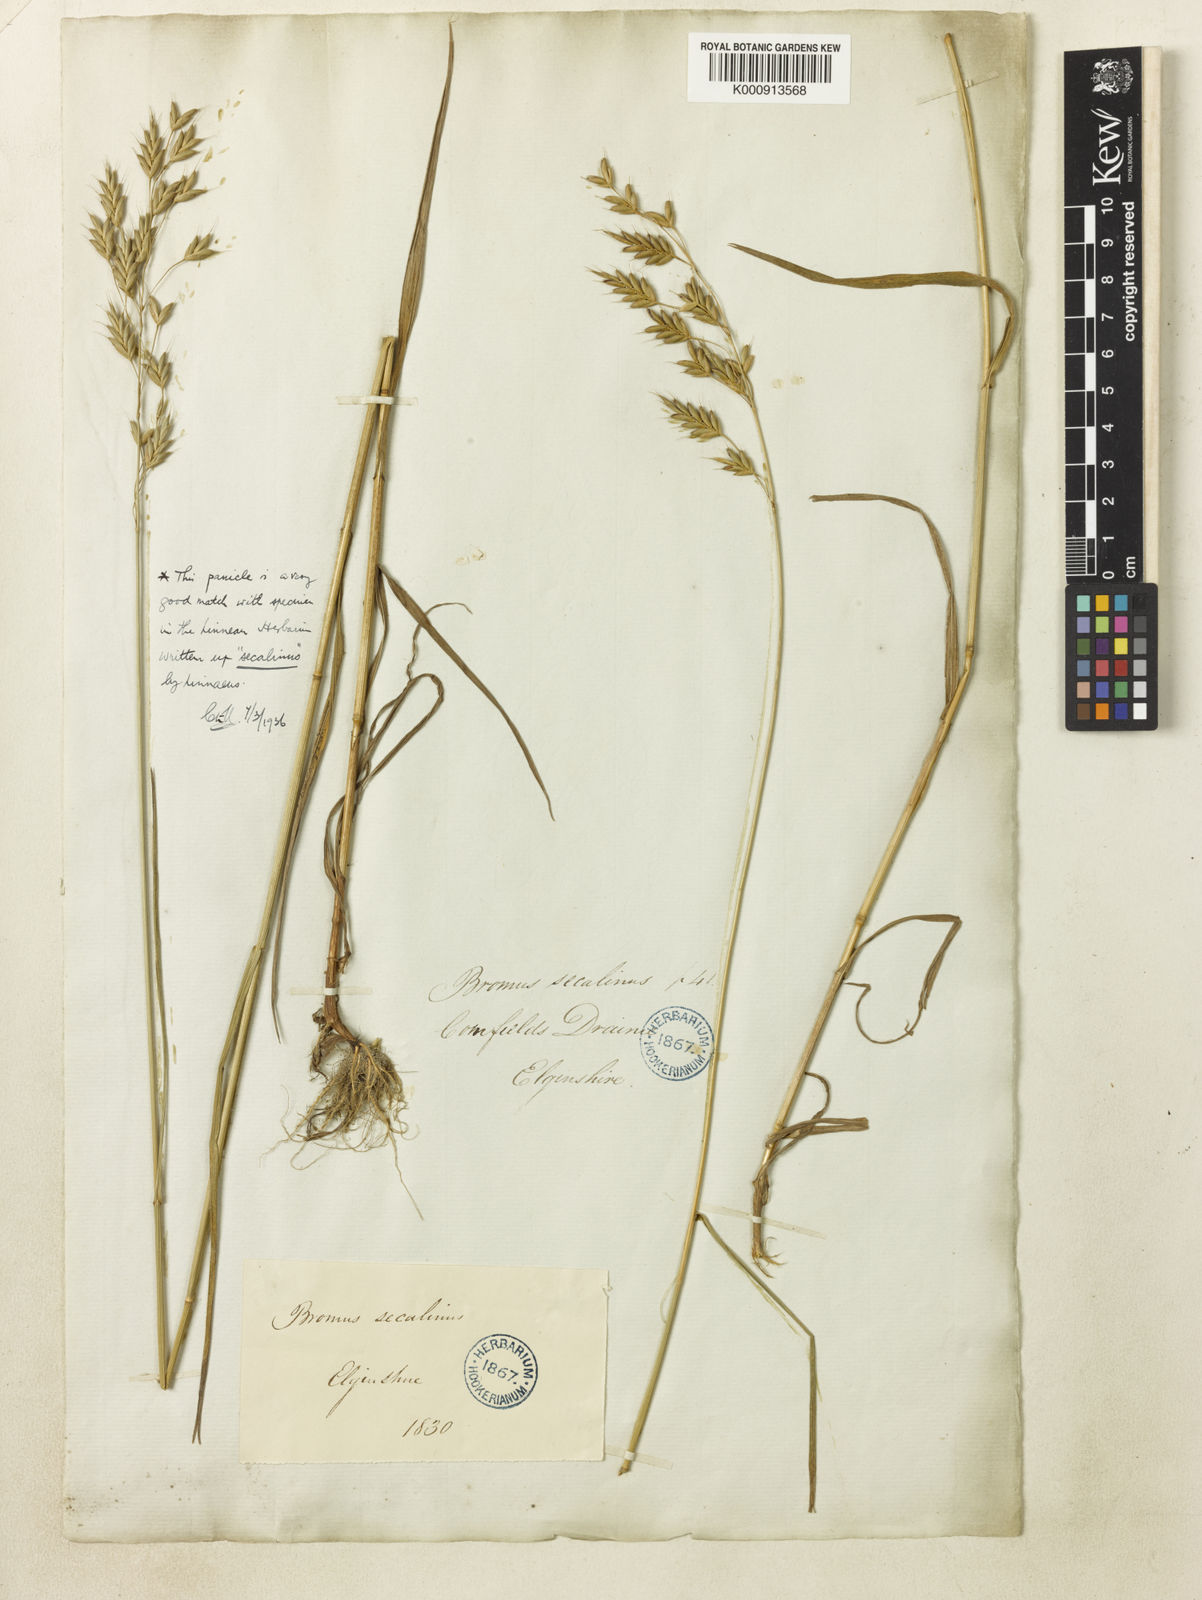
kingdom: Plantae
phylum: Tracheophyta
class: Liliopsida
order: Poales
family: Poaceae
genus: Bromus
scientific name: Bromus secalinus
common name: Rye brome
